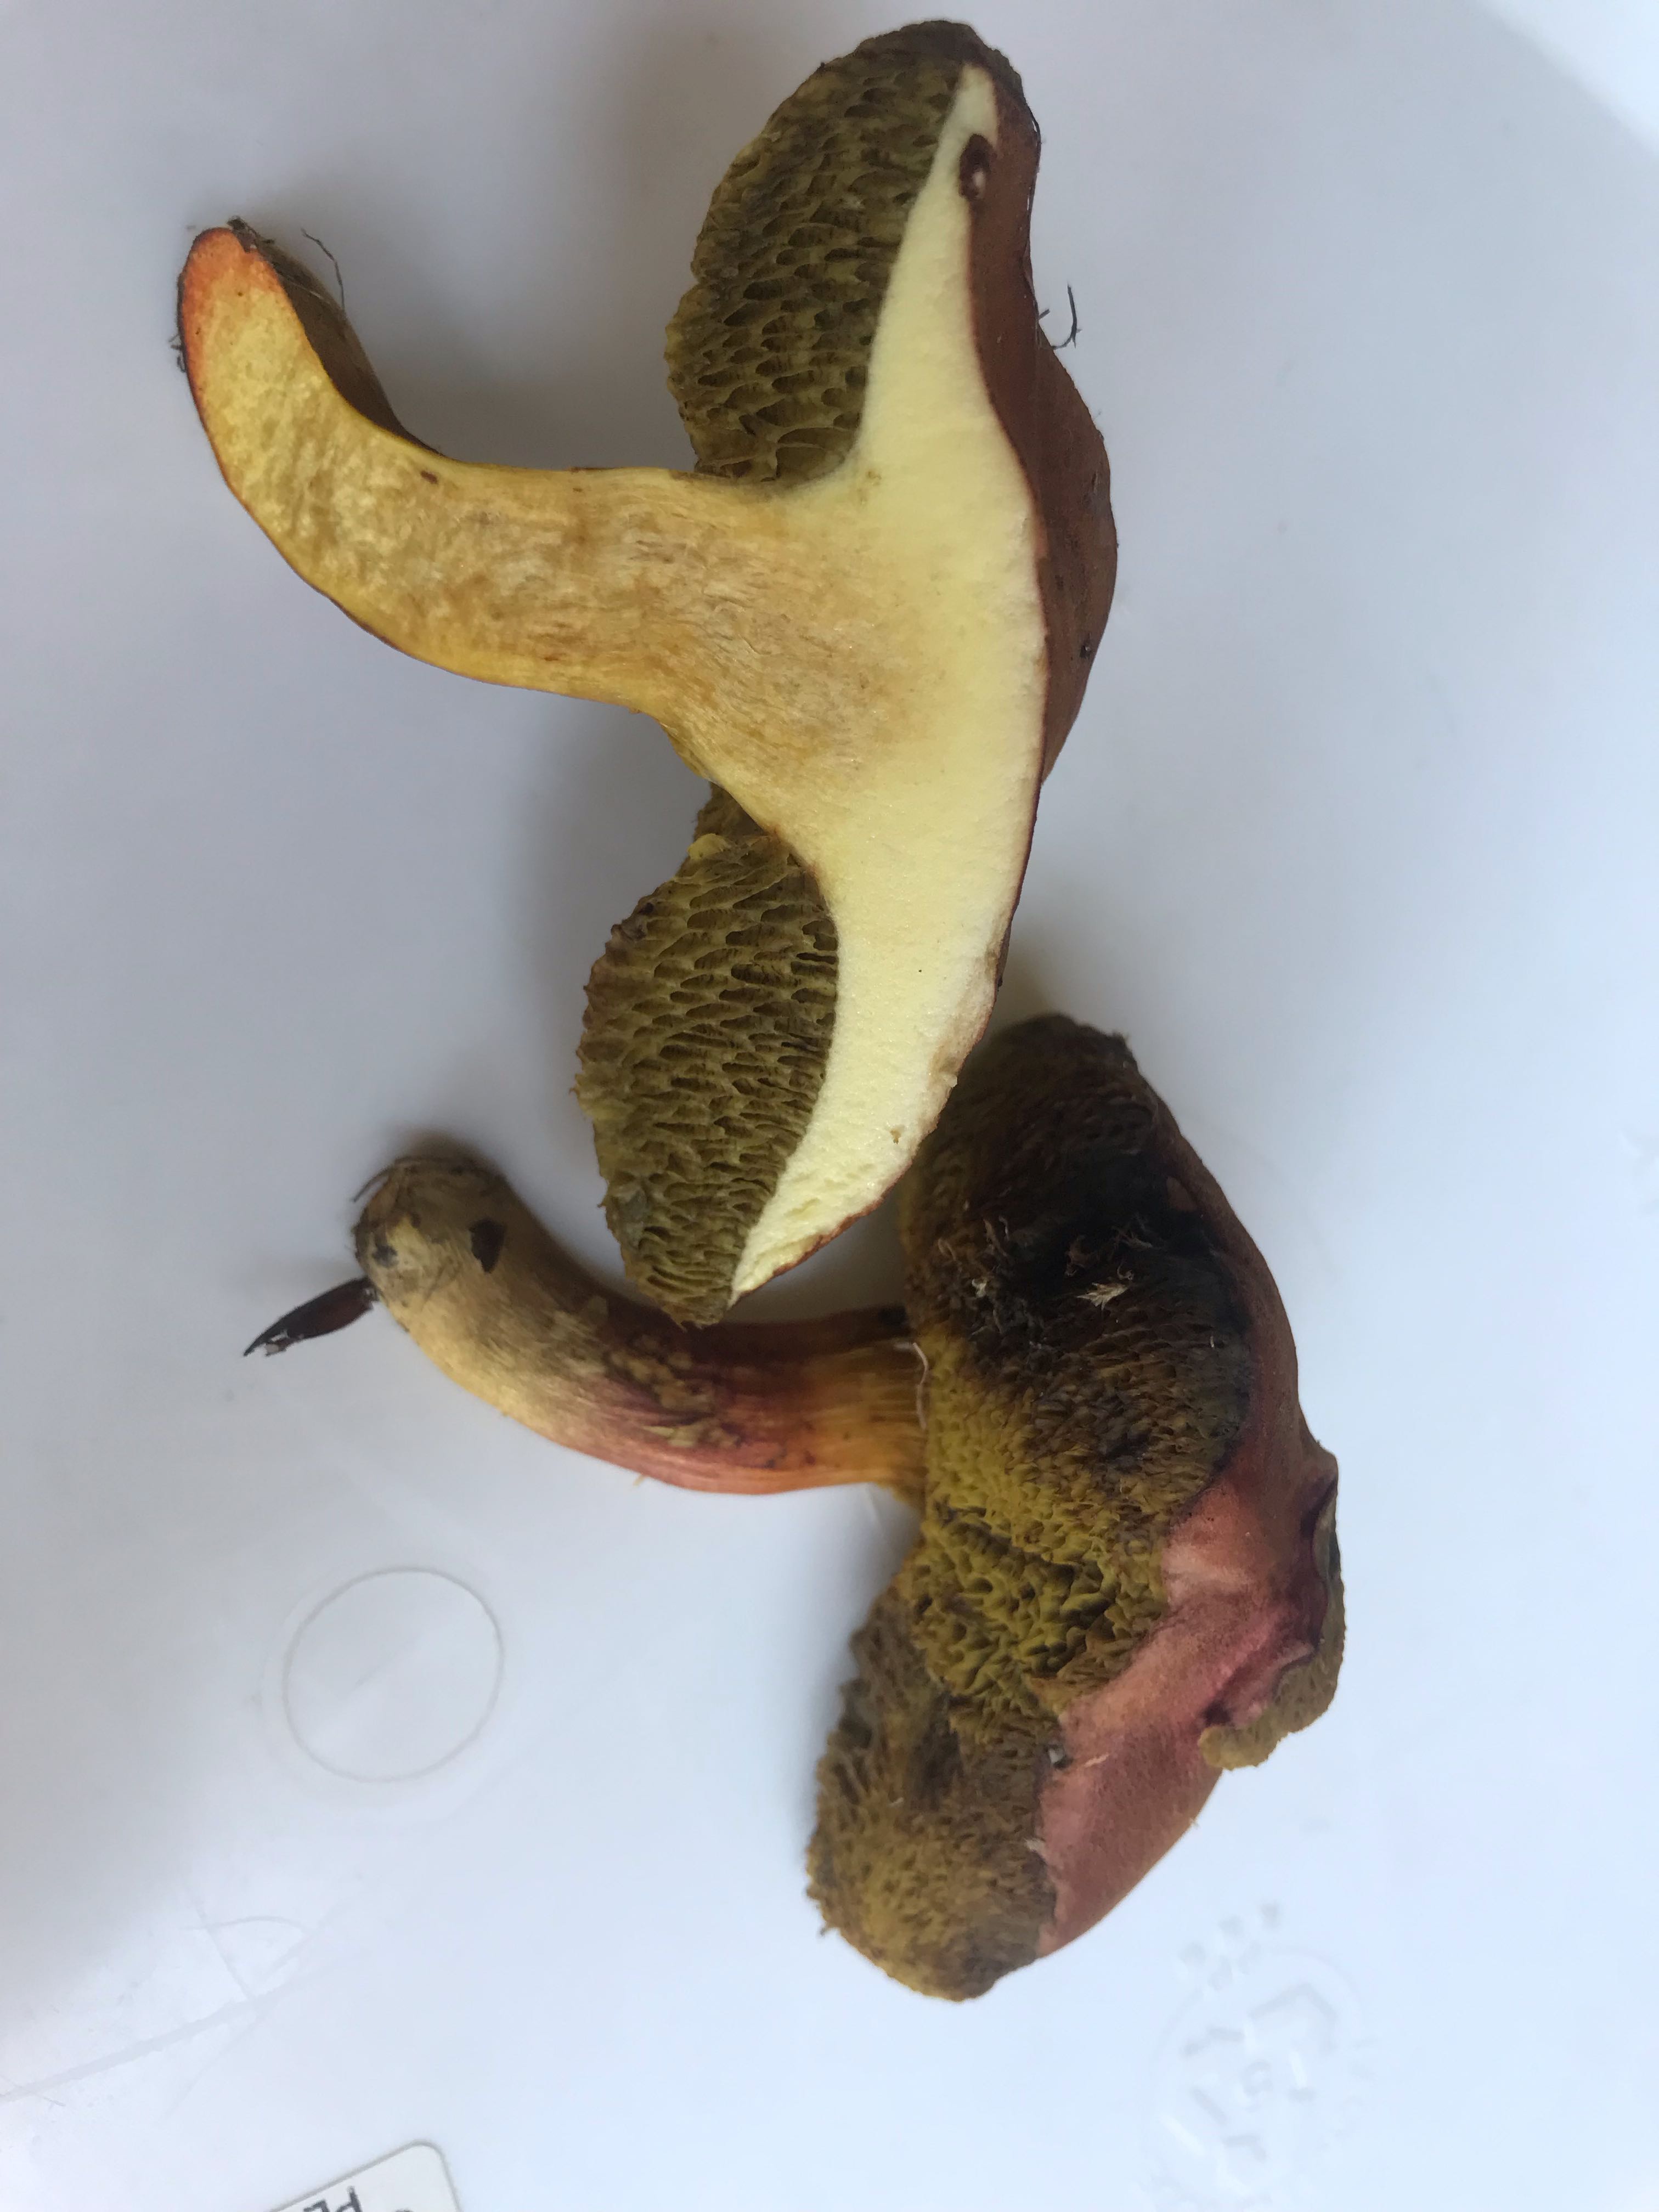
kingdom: Fungi
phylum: Basidiomycota
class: Agaricomycetes
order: Boletales
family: Boletaceae
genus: Hortiboletus
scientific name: Hortiboletus engelii
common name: fersken-rørhat
